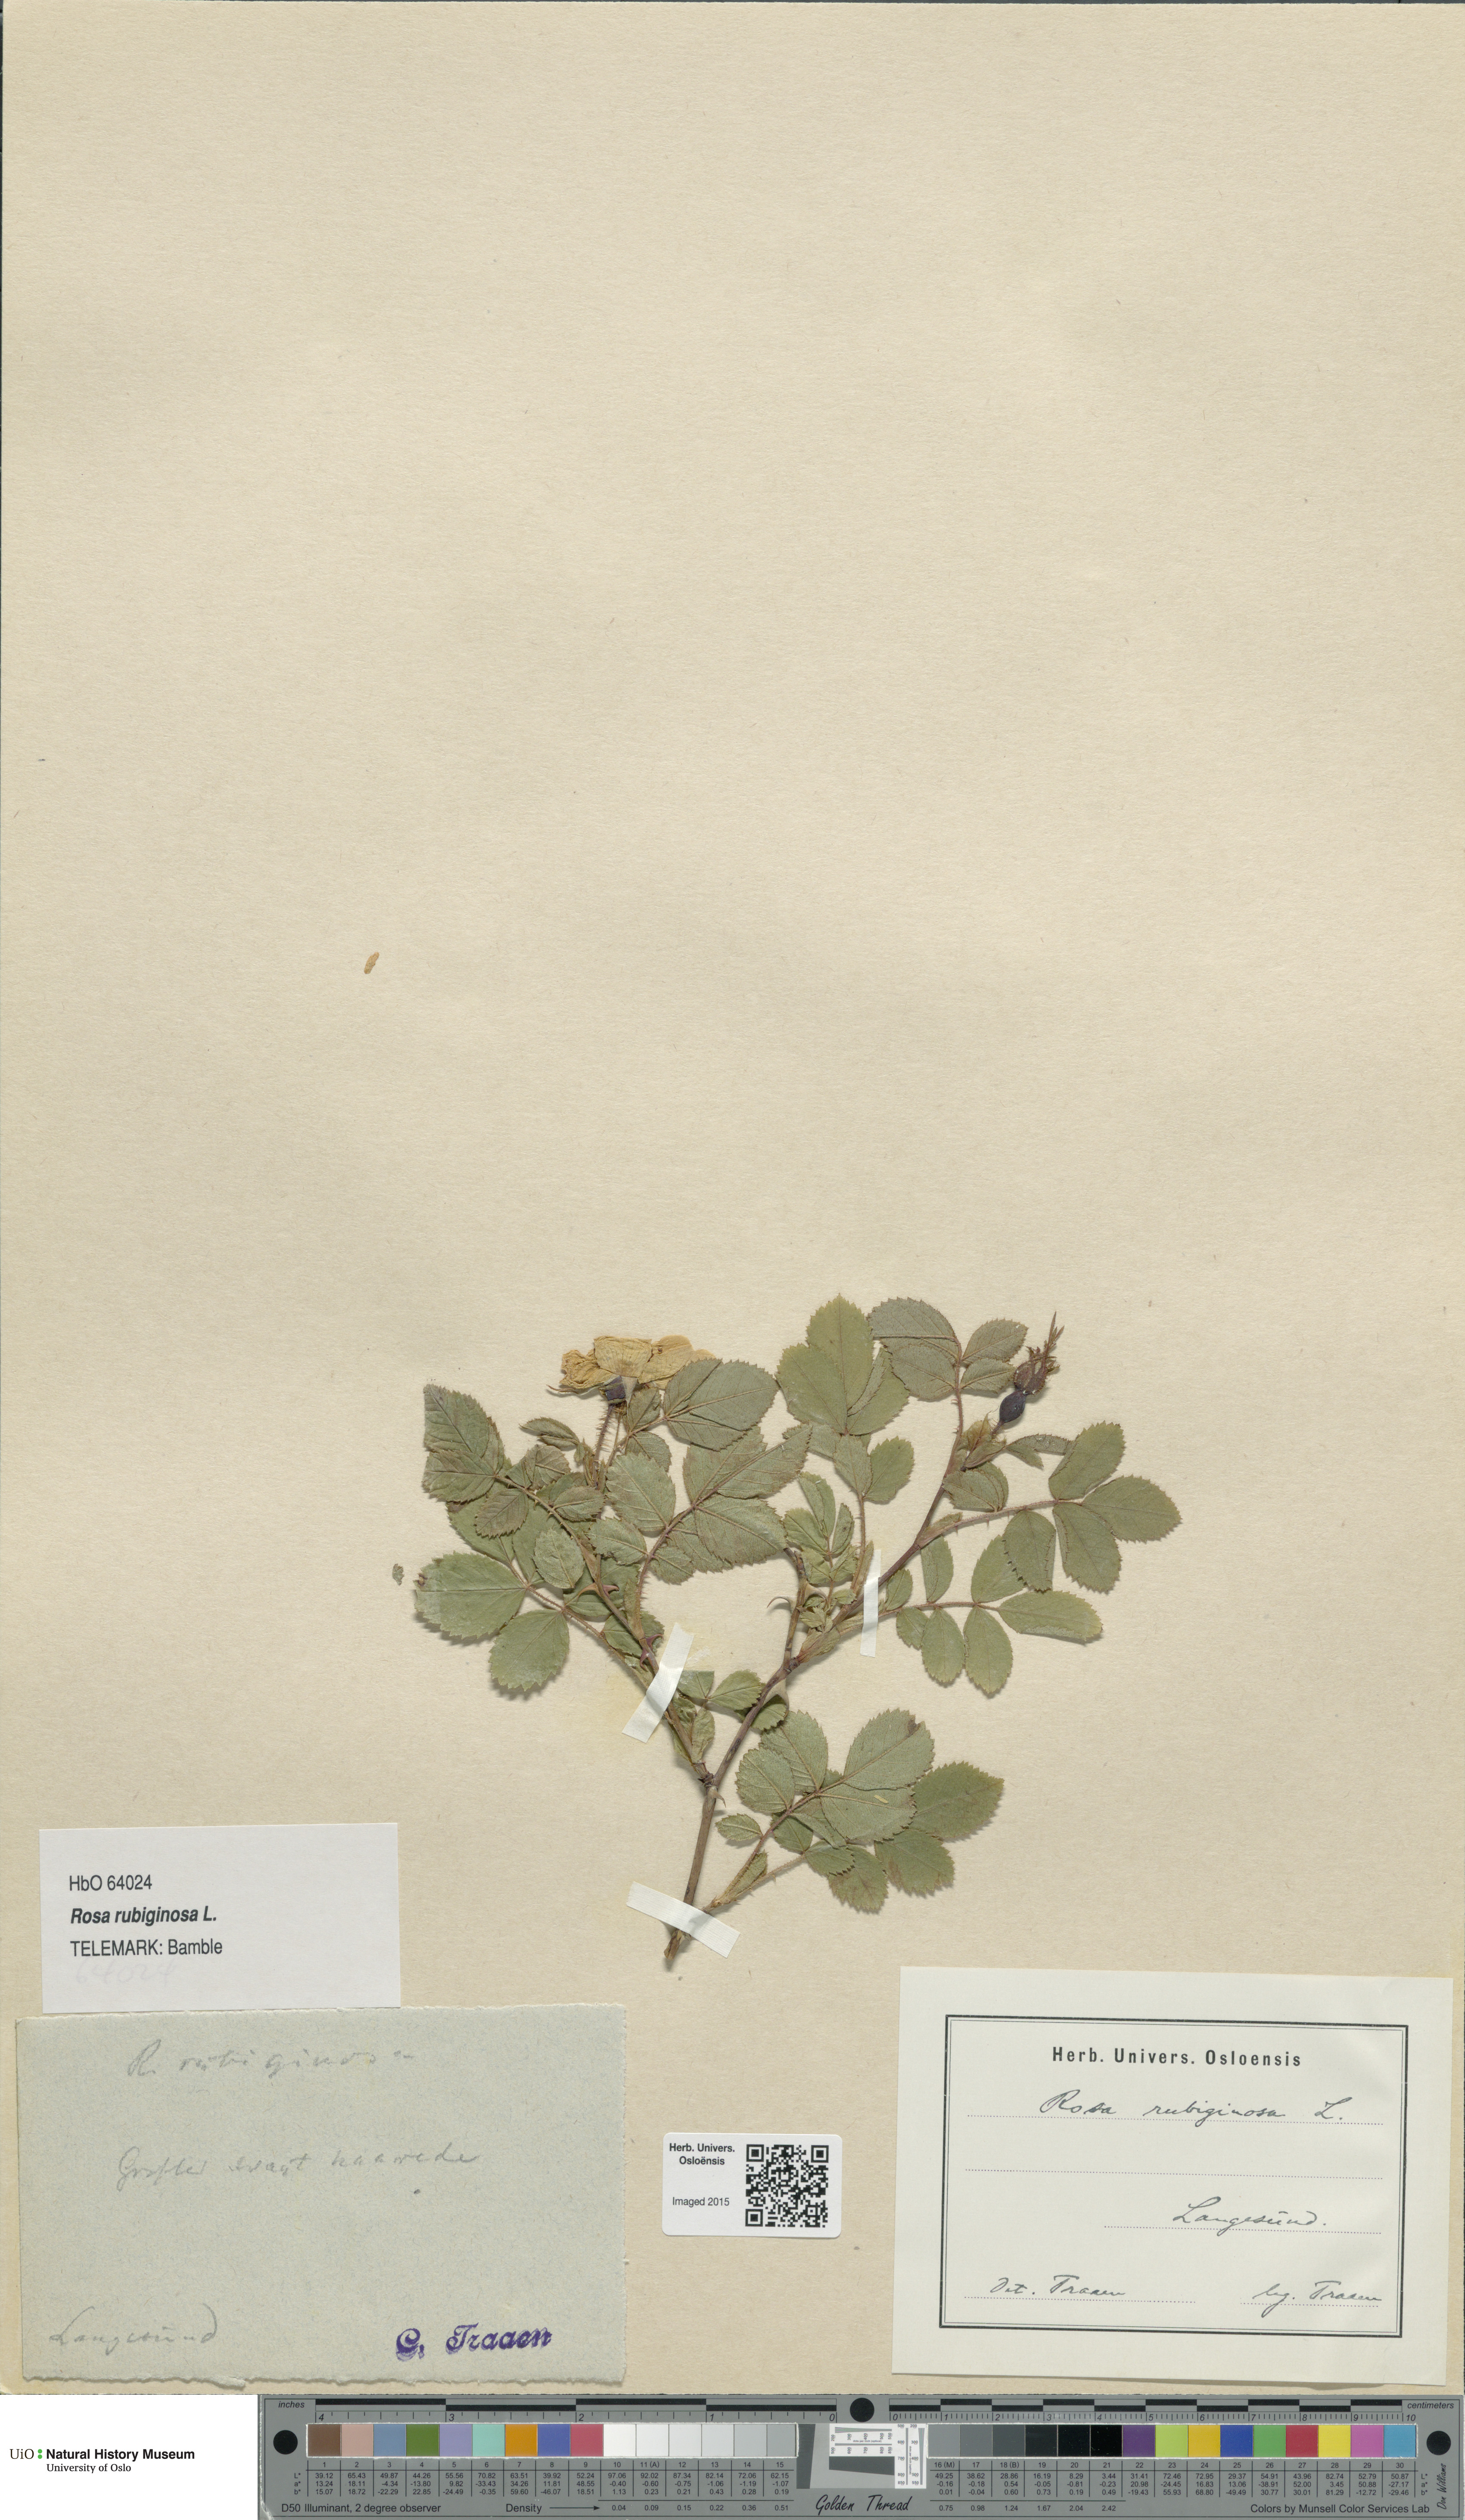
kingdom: Plantae
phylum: Tracheophyta
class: Magnoliopsida
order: Rosales
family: Rosaceae
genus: Rosa
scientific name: Rosa rubiginosa
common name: Sweet-briar
